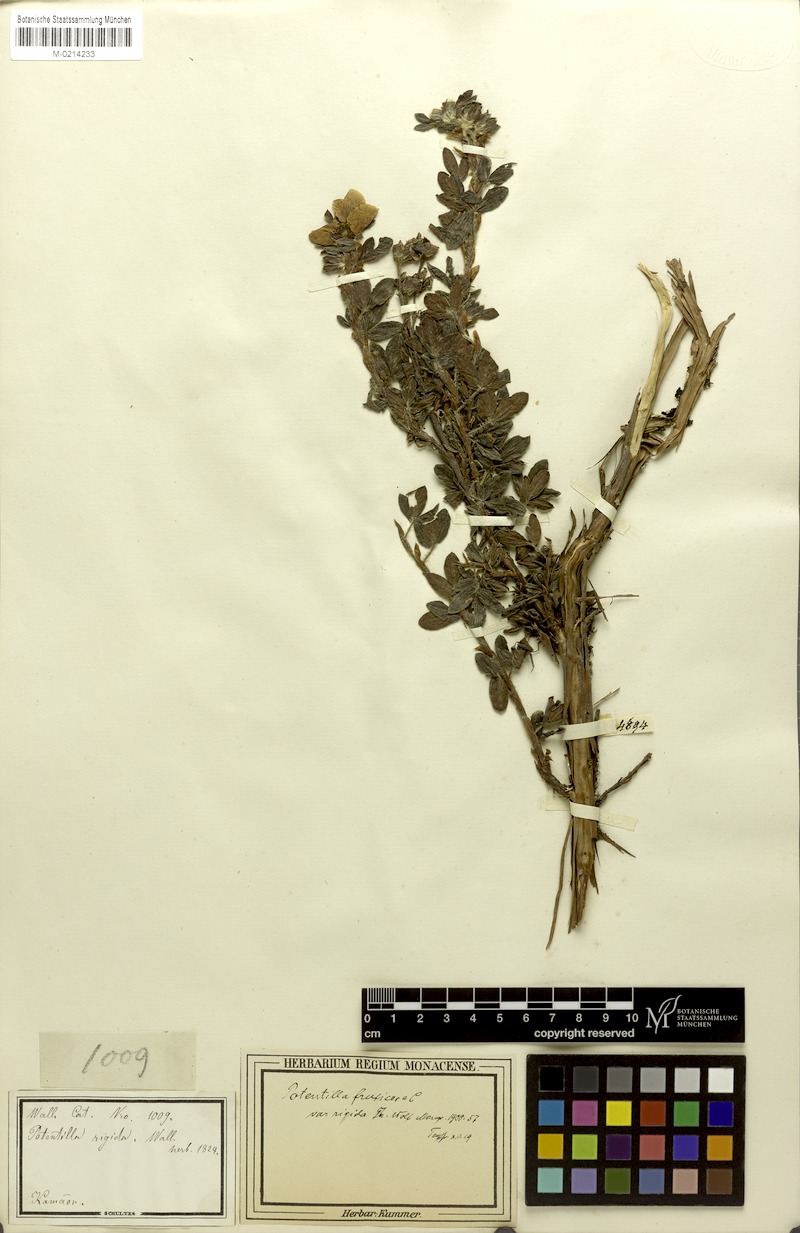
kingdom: Plantae
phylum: Tracheophyta
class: Magnoliopsida
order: Rosales
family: Rosaceae
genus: Dasiphora
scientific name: Dasiphora fruticosa
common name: Shrubby cinquefoil
